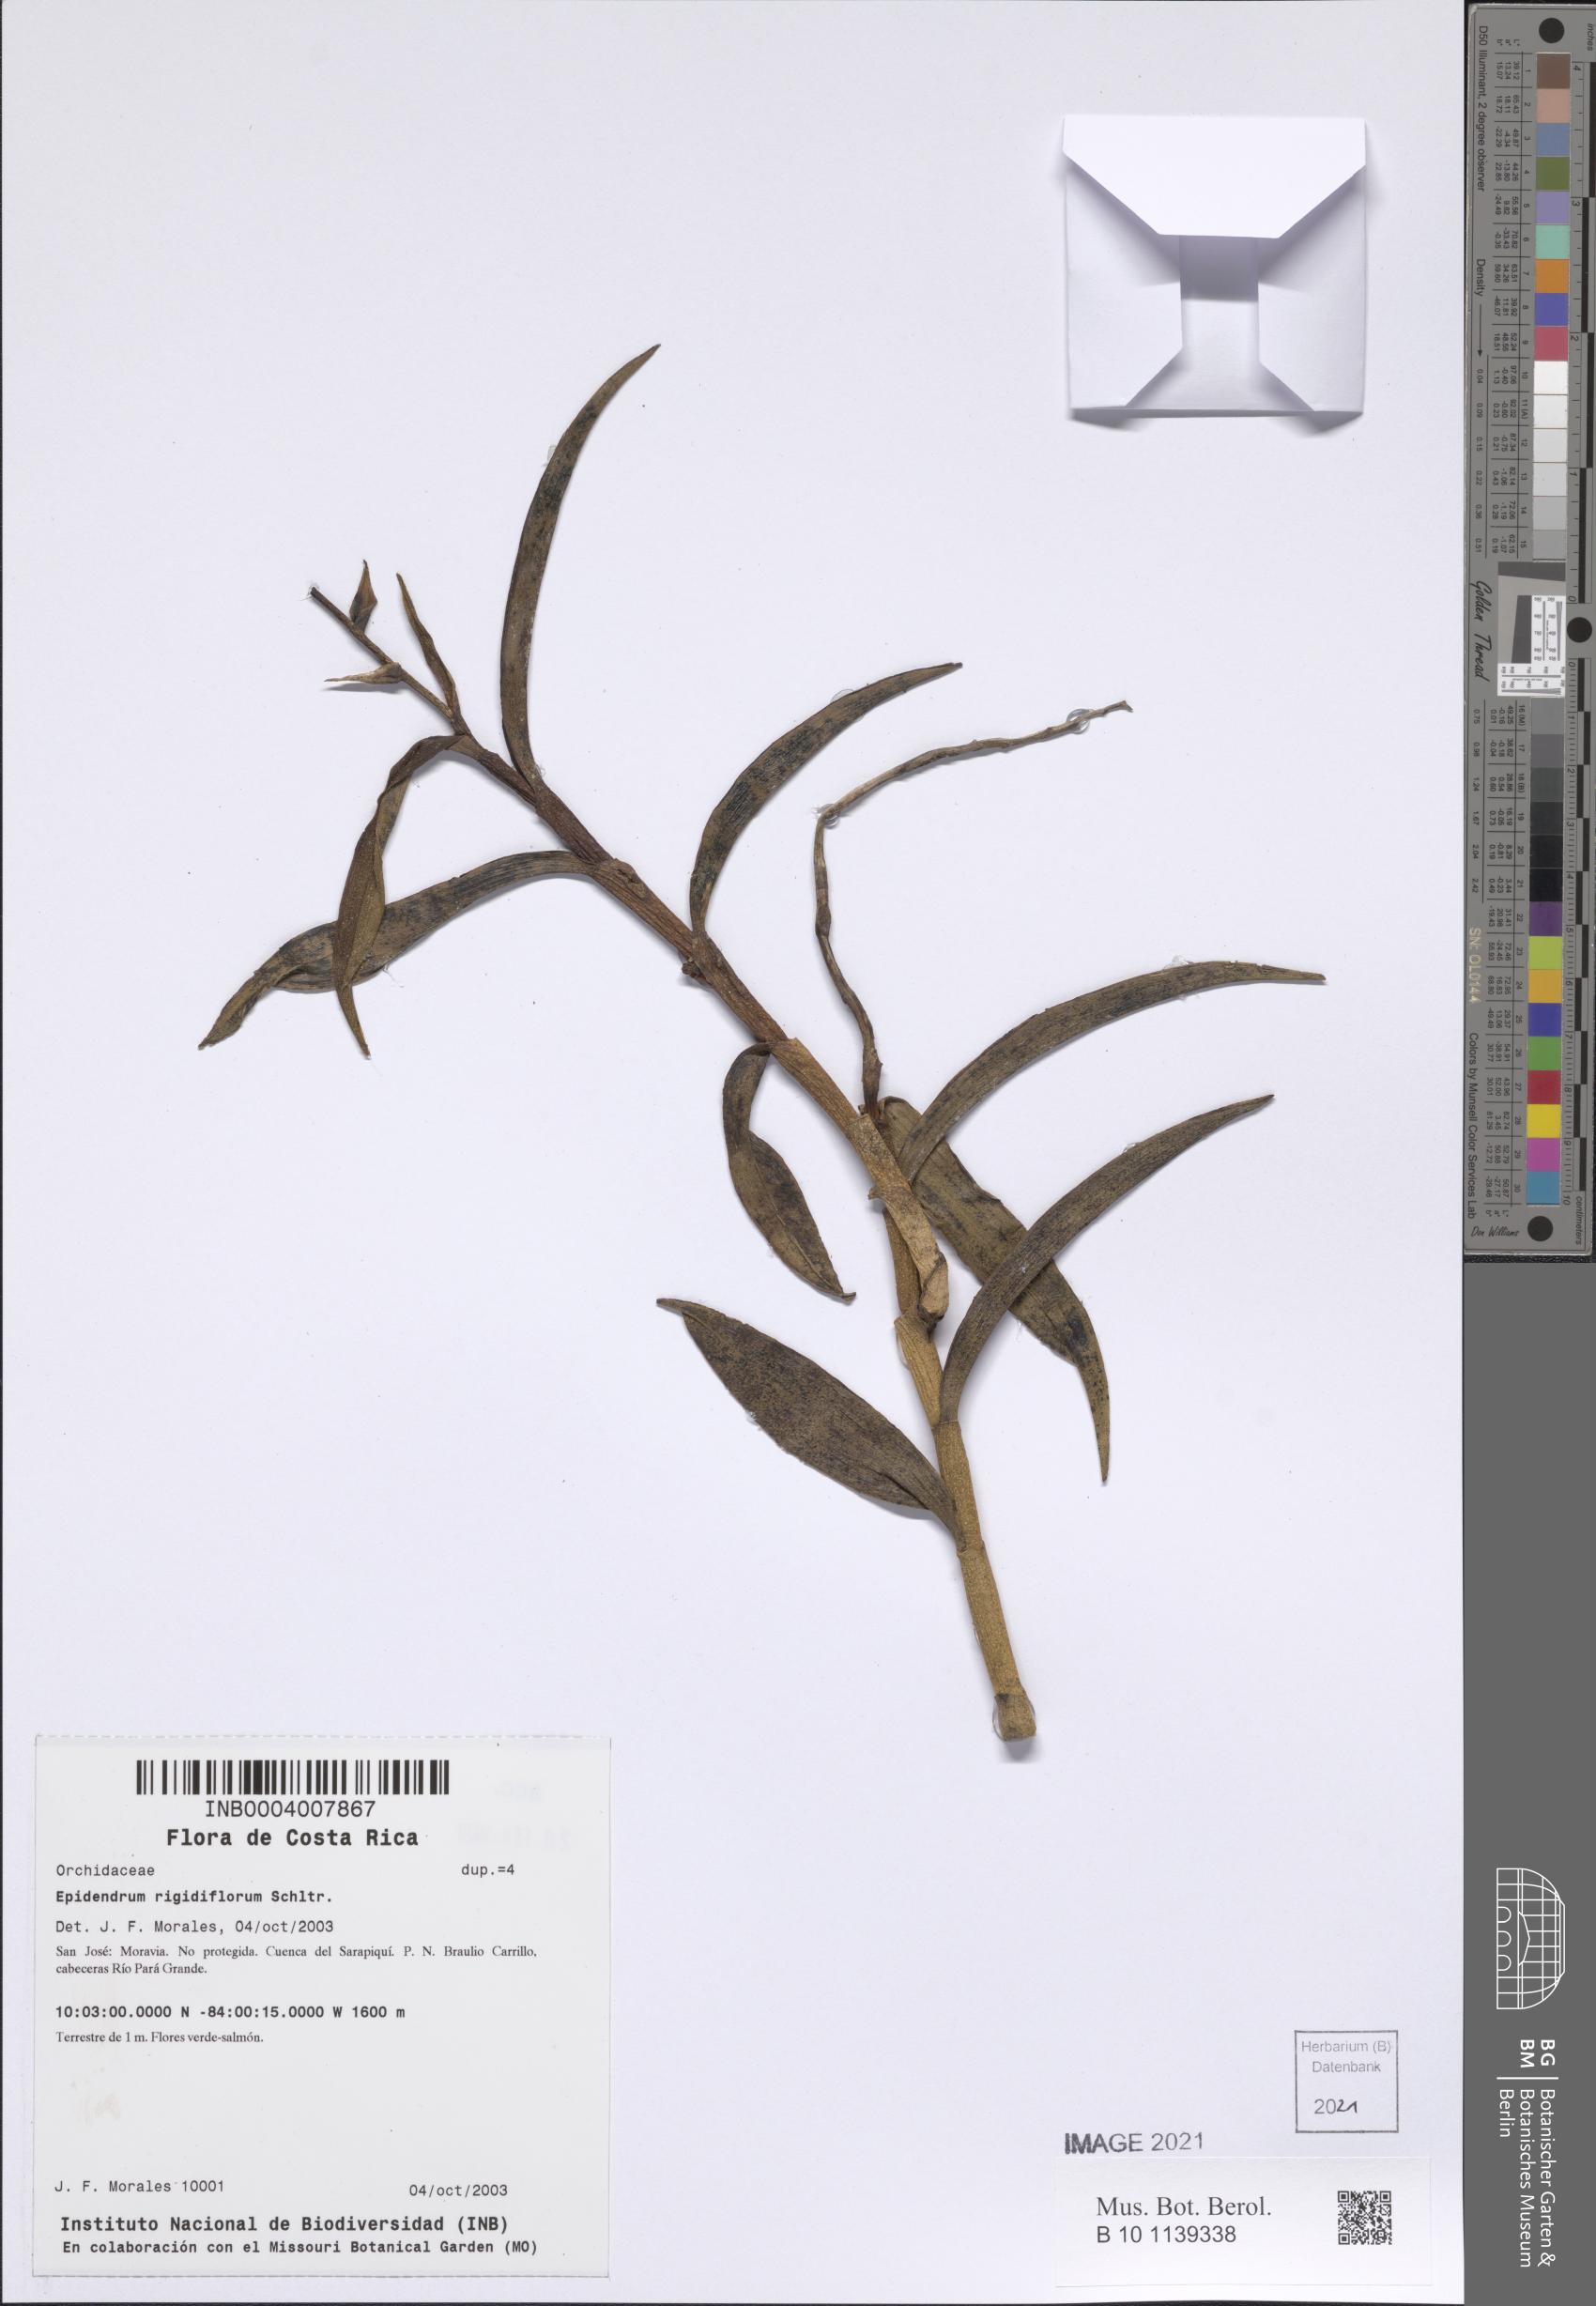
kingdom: Plantae
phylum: Tracheophyta
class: Liliopsida
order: Asparagales
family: Orchidaceae
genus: Epidendrum
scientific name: Epidendrum rigidiflorum
